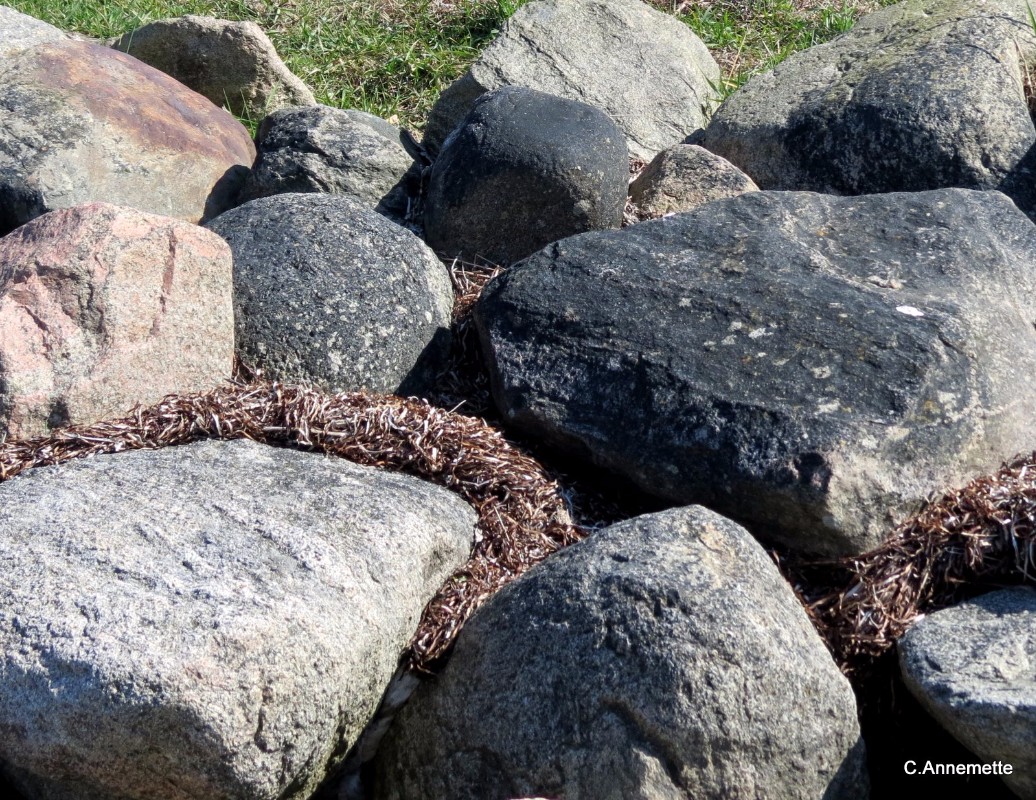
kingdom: Fungi
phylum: Ascomycota
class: Eurotiomycetes
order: Verrucariales
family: Verrucariaceae
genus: Hydropunctaria
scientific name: Hydropunctaria maura
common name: strand-vortelav
